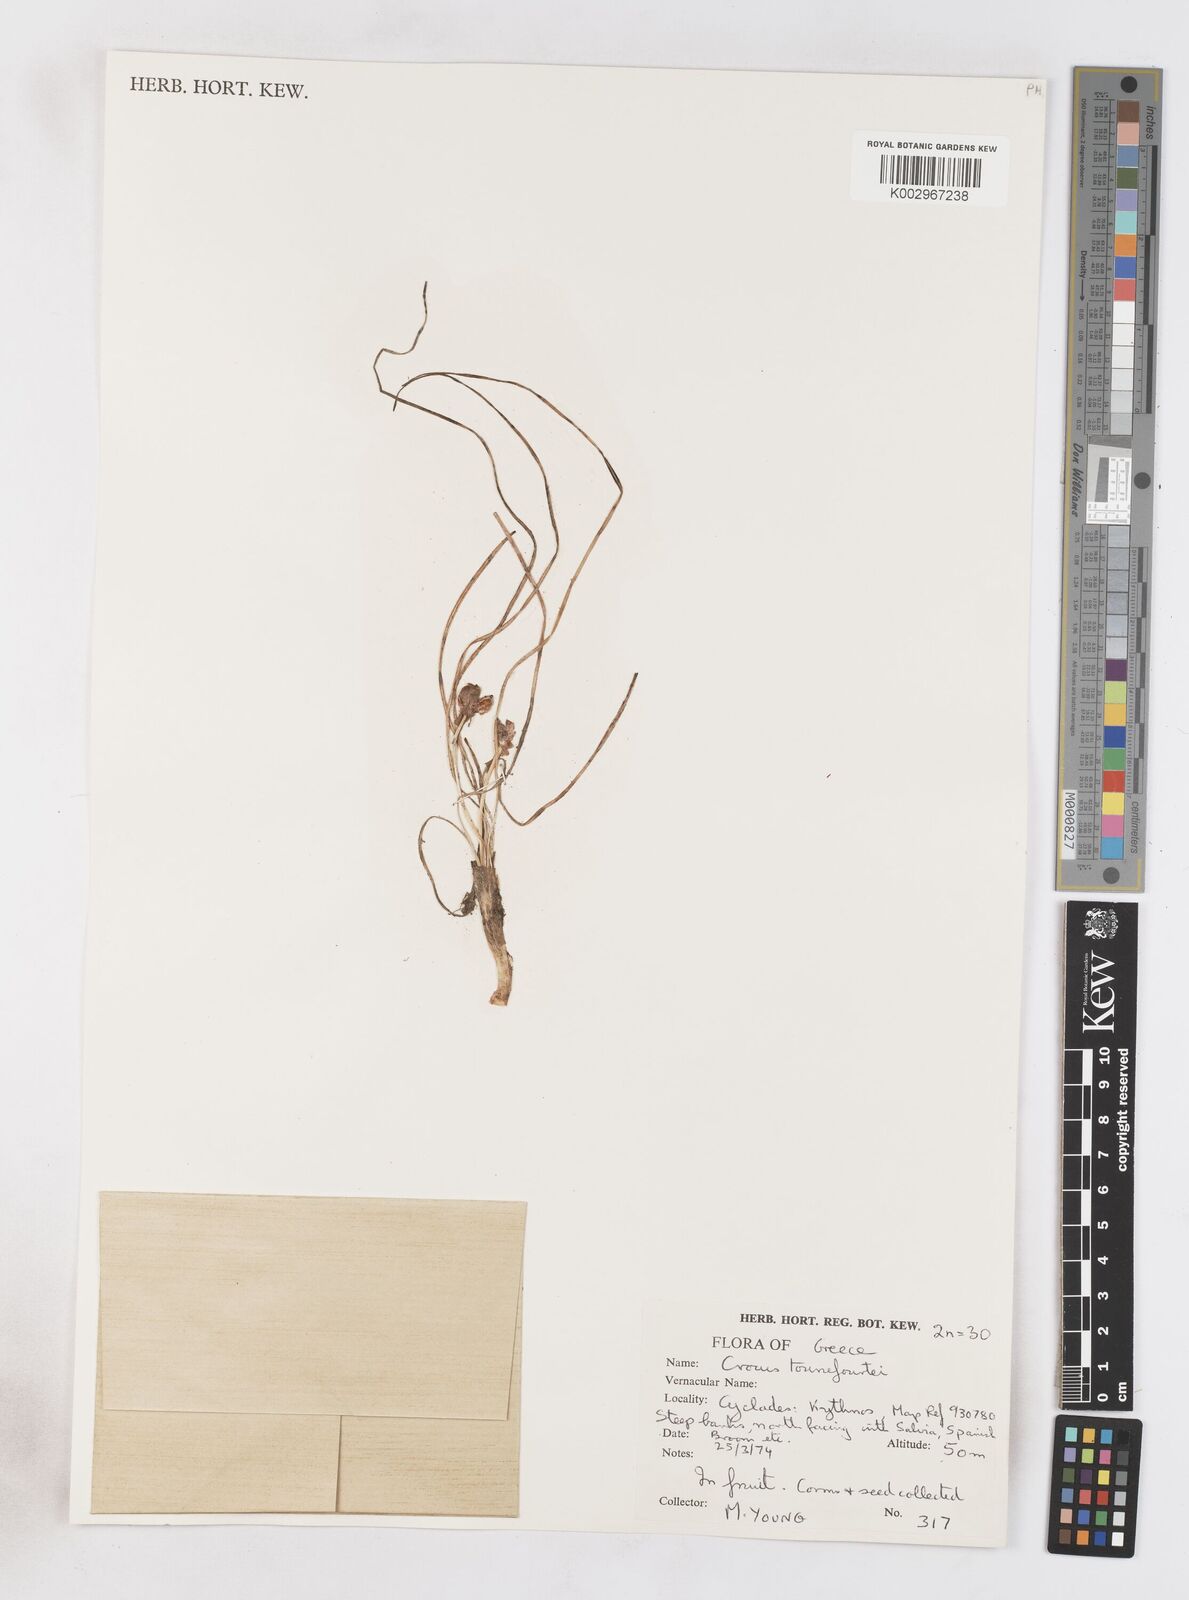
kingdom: Plantae
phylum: Tracheophyta
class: Liliopsida
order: Asparagales
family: Iridaceae
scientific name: Iridaceae
